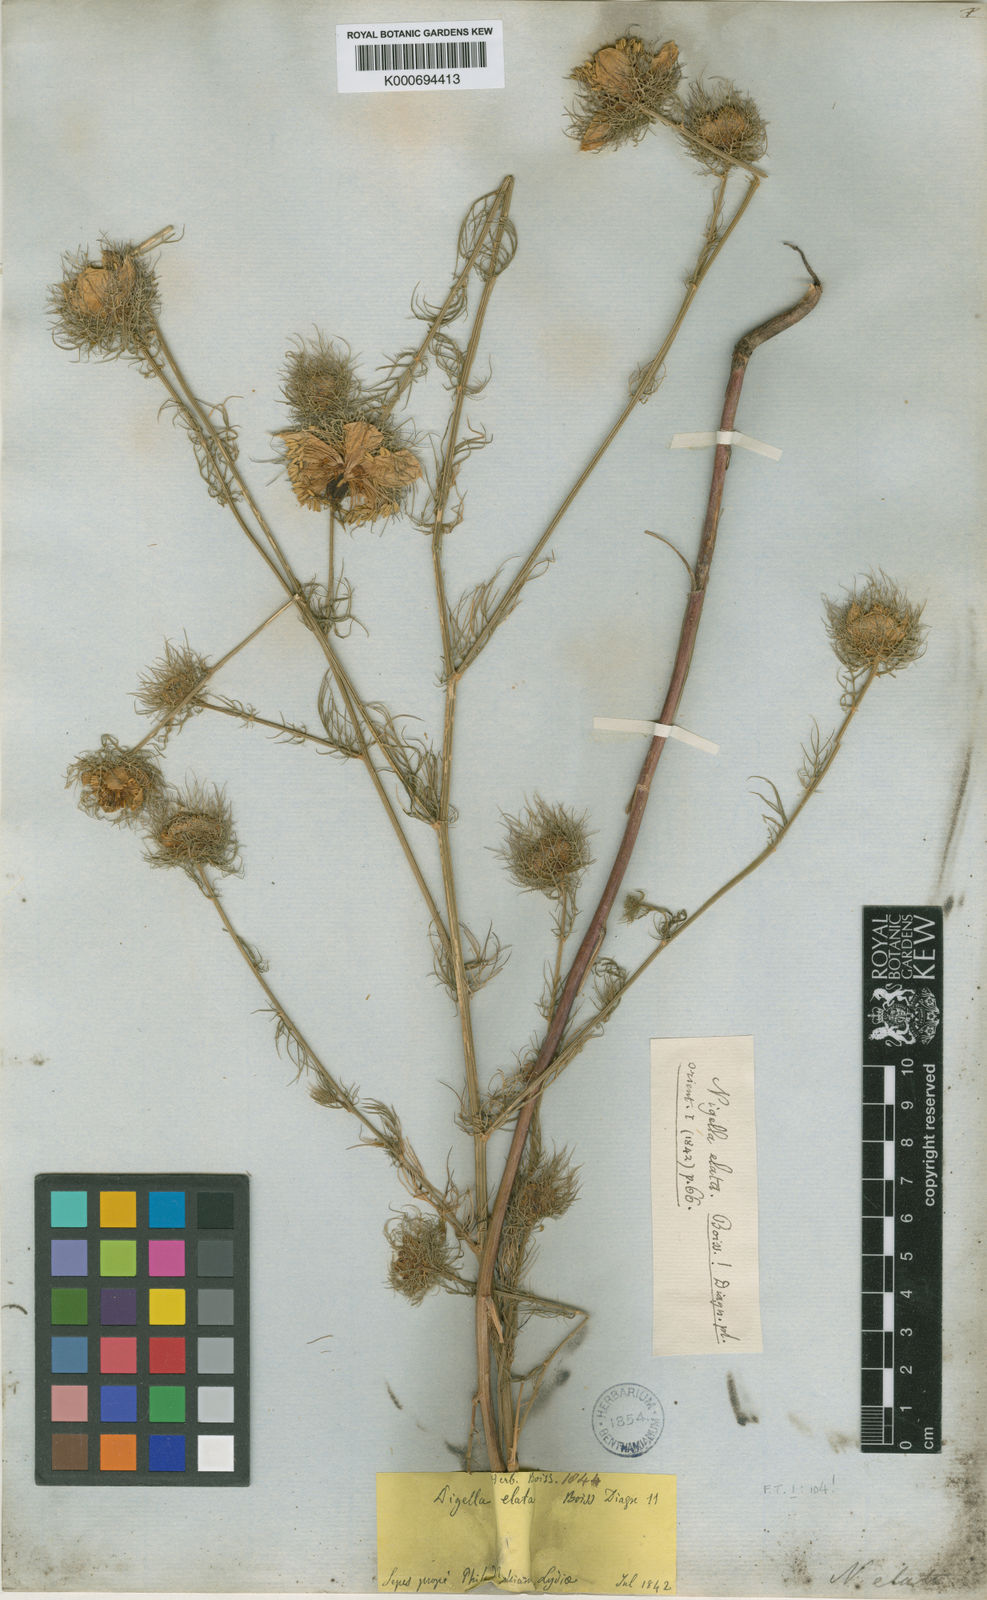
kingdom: Plantae
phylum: Tracheophyta
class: Magnoliopsida
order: Ranunculales
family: Ranunculaceae
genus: Nigella
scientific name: Nigella elata
